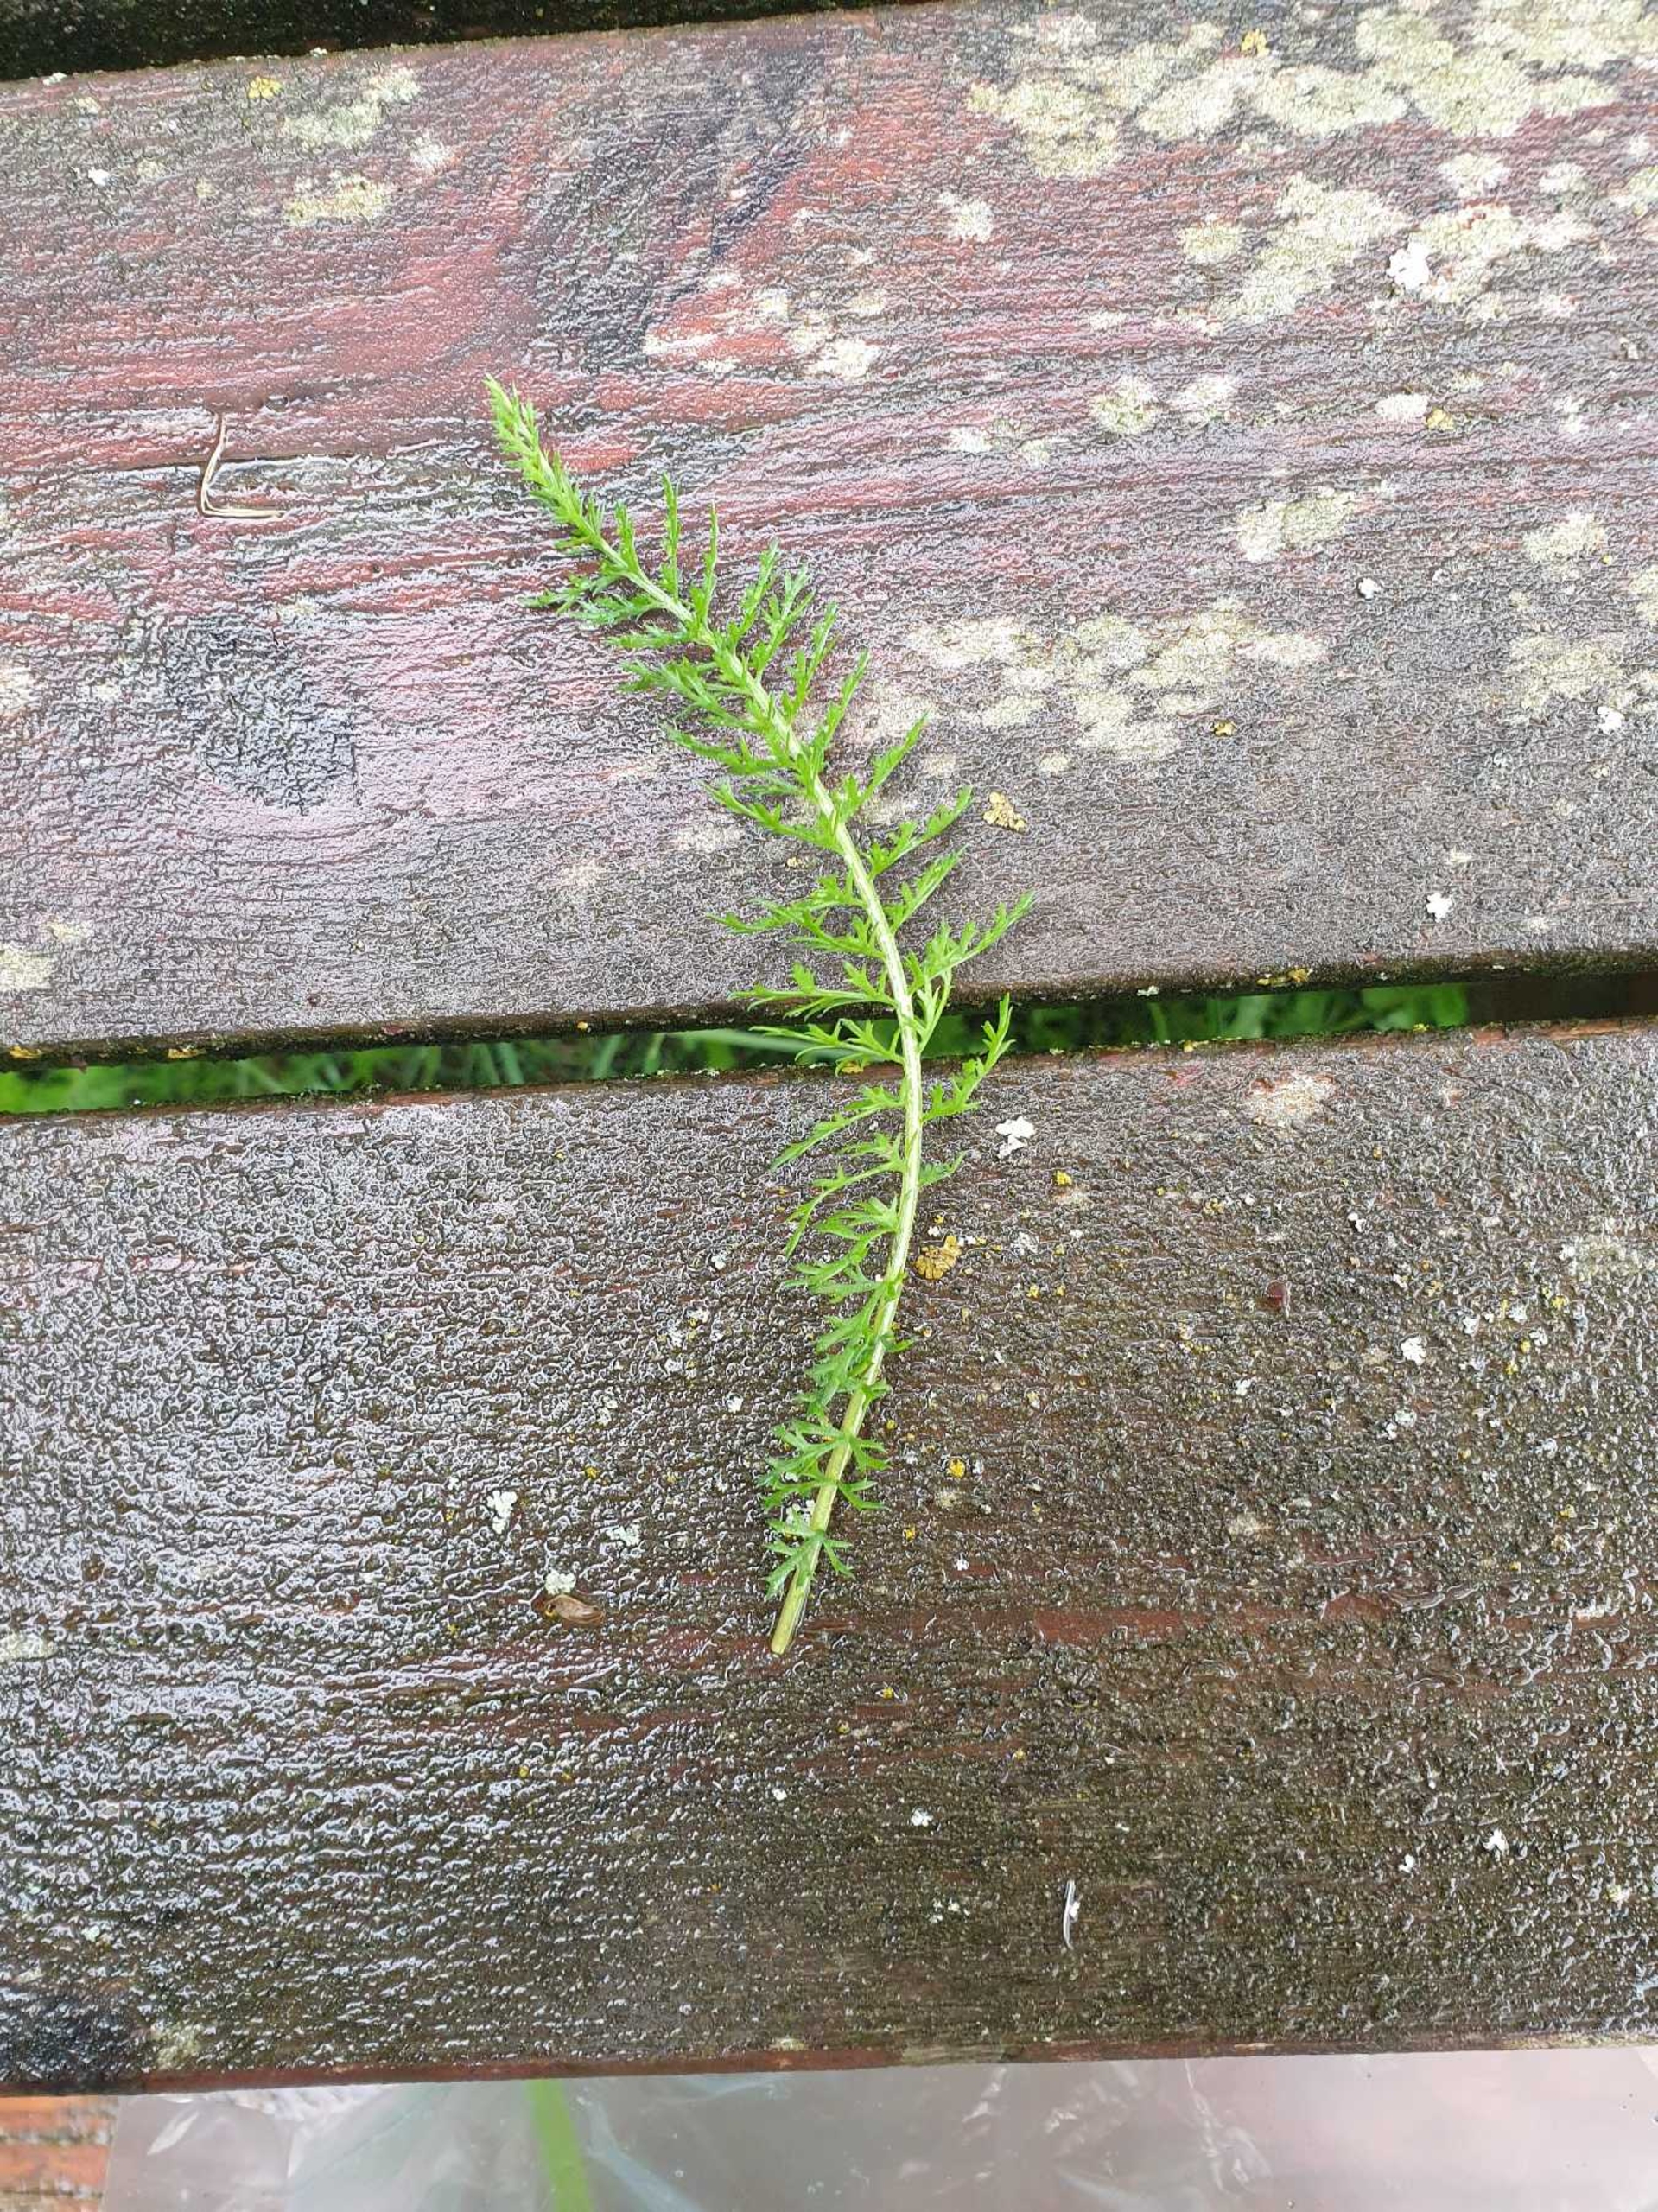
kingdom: Plantae
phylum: Tracheophyta
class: Magnoliopsida
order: Asterales
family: Asteraceae
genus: Achillea
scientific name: Achillea millefolium
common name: Almindelig røllike
